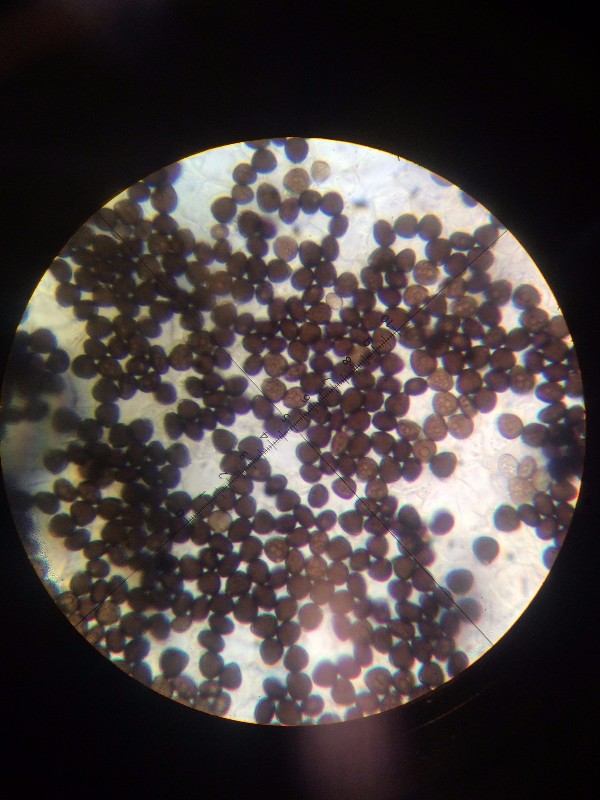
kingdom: Fungi
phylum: Basidiomycota
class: Agaricomycetes
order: Agaricales
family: Psathyrellaceae
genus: Parasola
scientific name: Parasola kuehneri
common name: skygge-hjulhat
